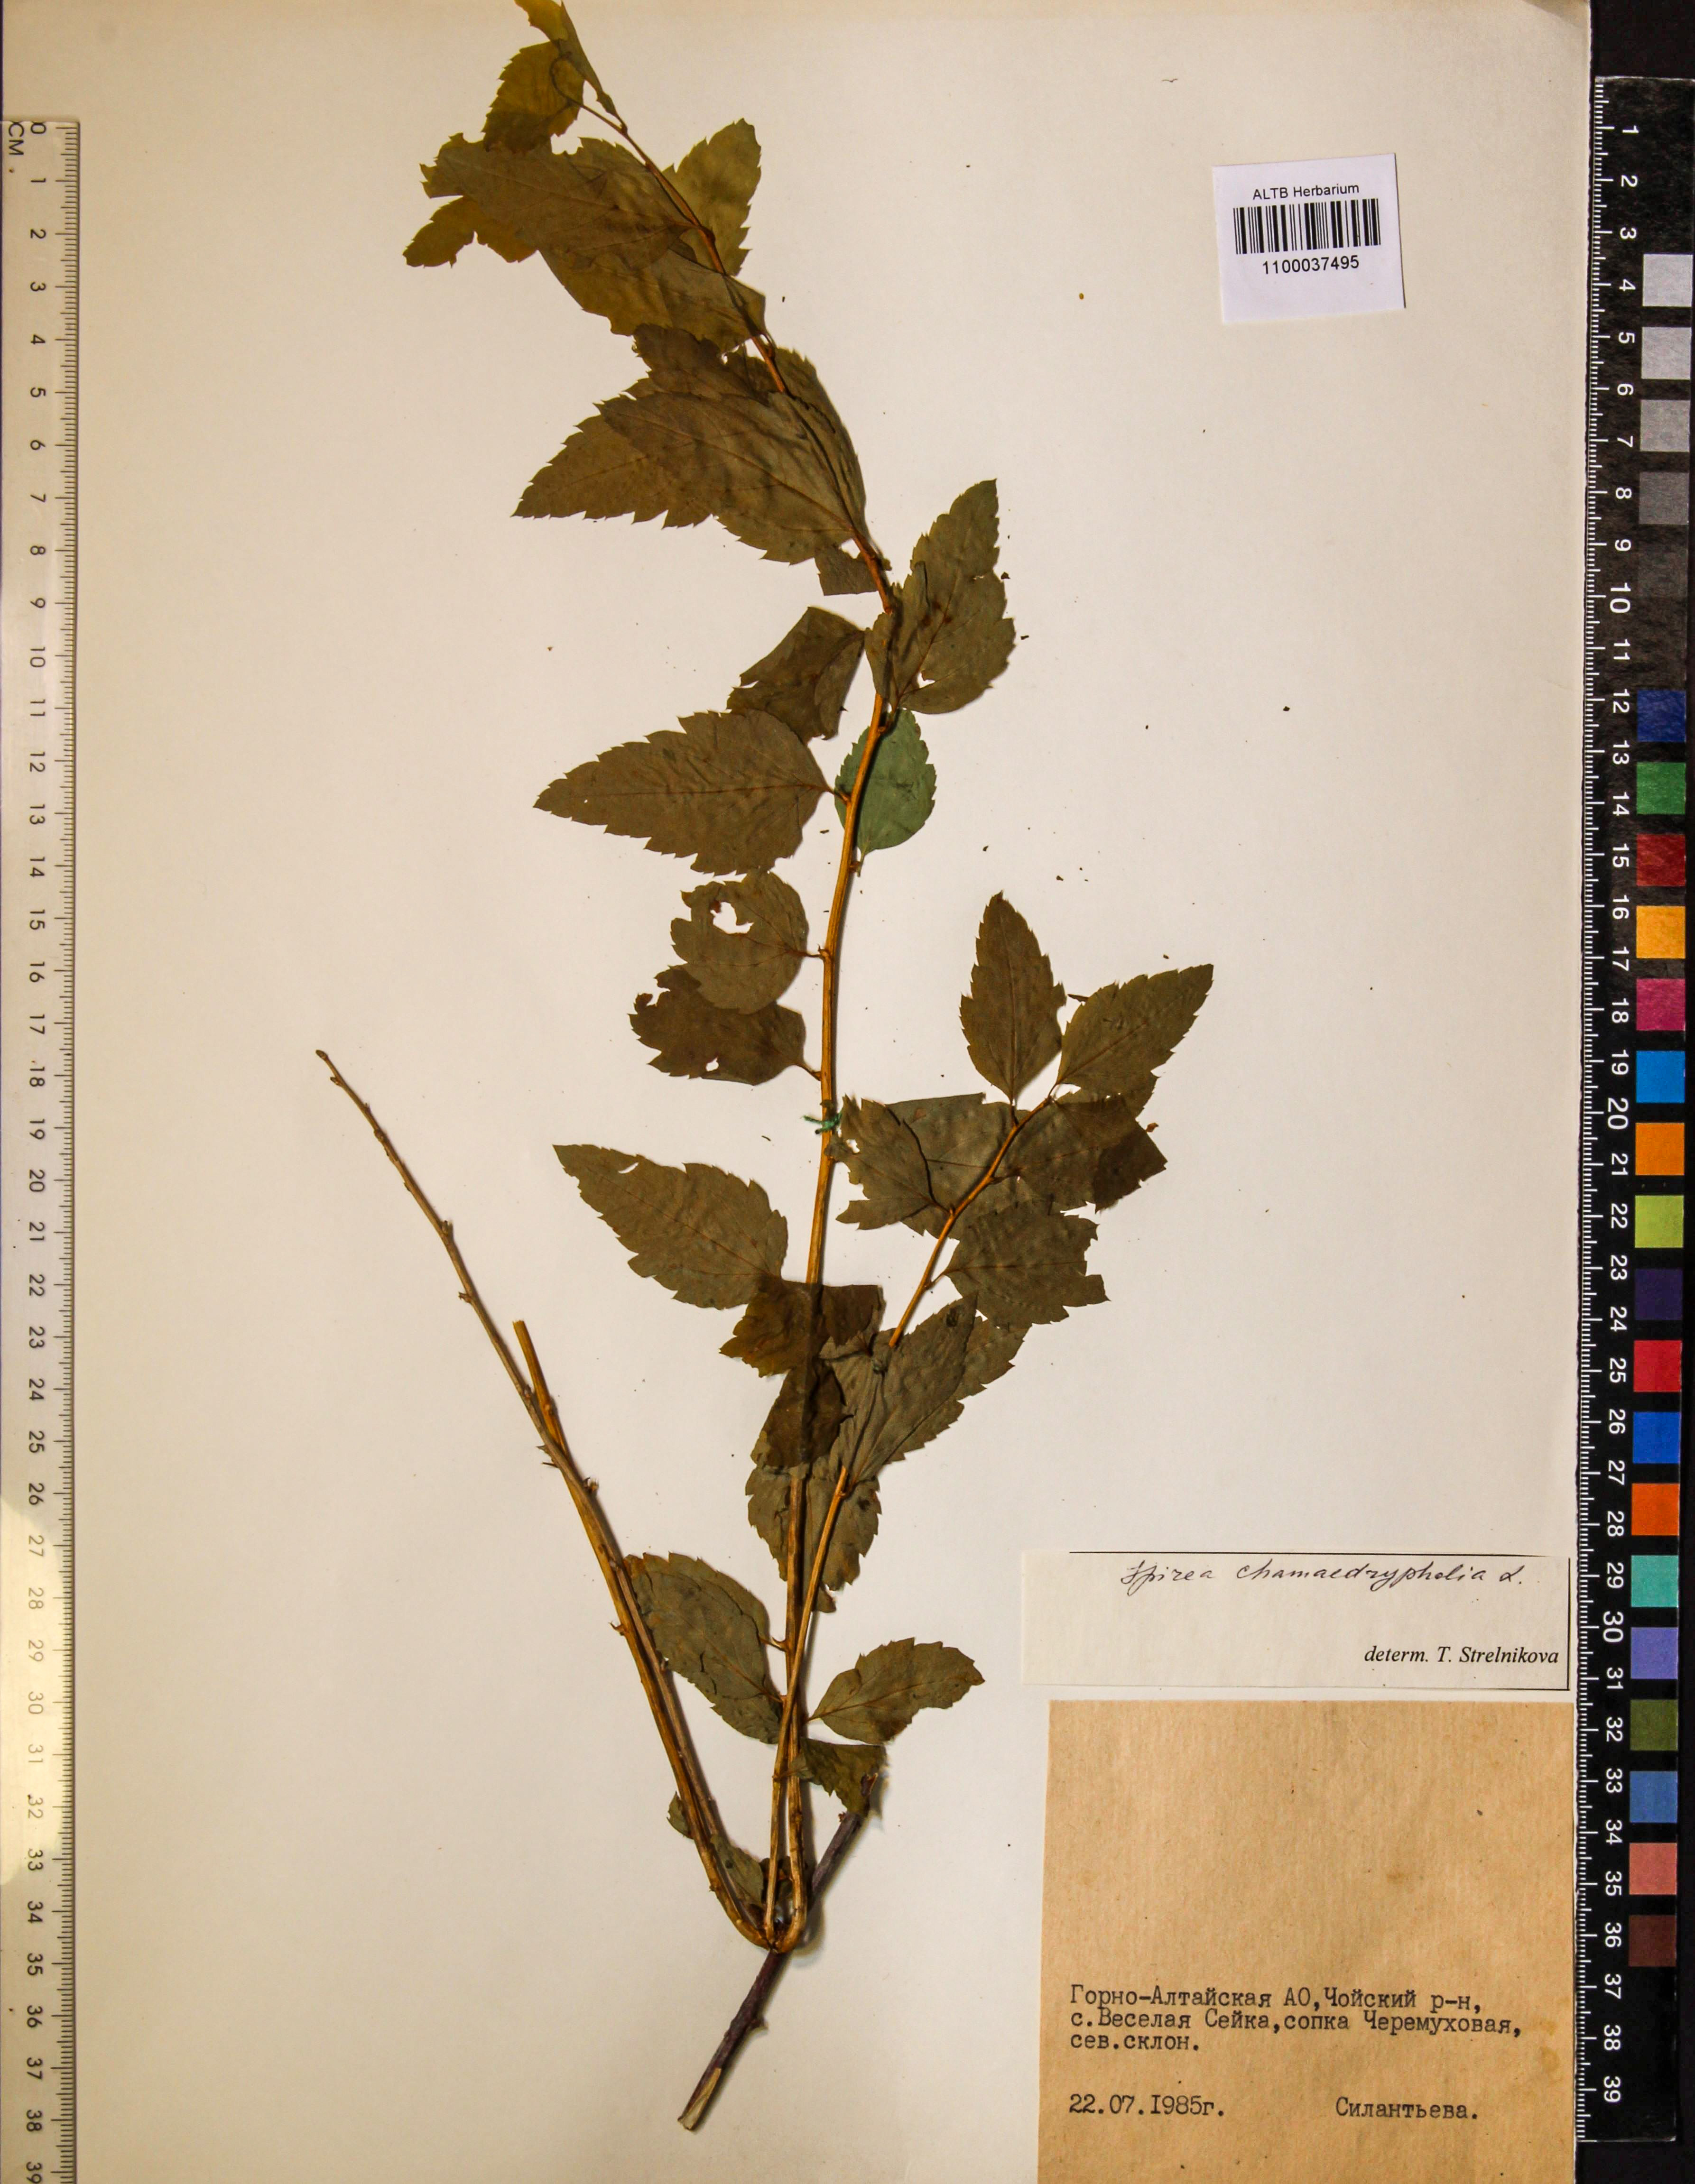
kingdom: Plantae
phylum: Tracheophyta
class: Magnoliopsida
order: Rosales
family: Rosaceae
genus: Spiraea
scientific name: Spiraea chamaedryfolia
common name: Elm-leaved spiraea
